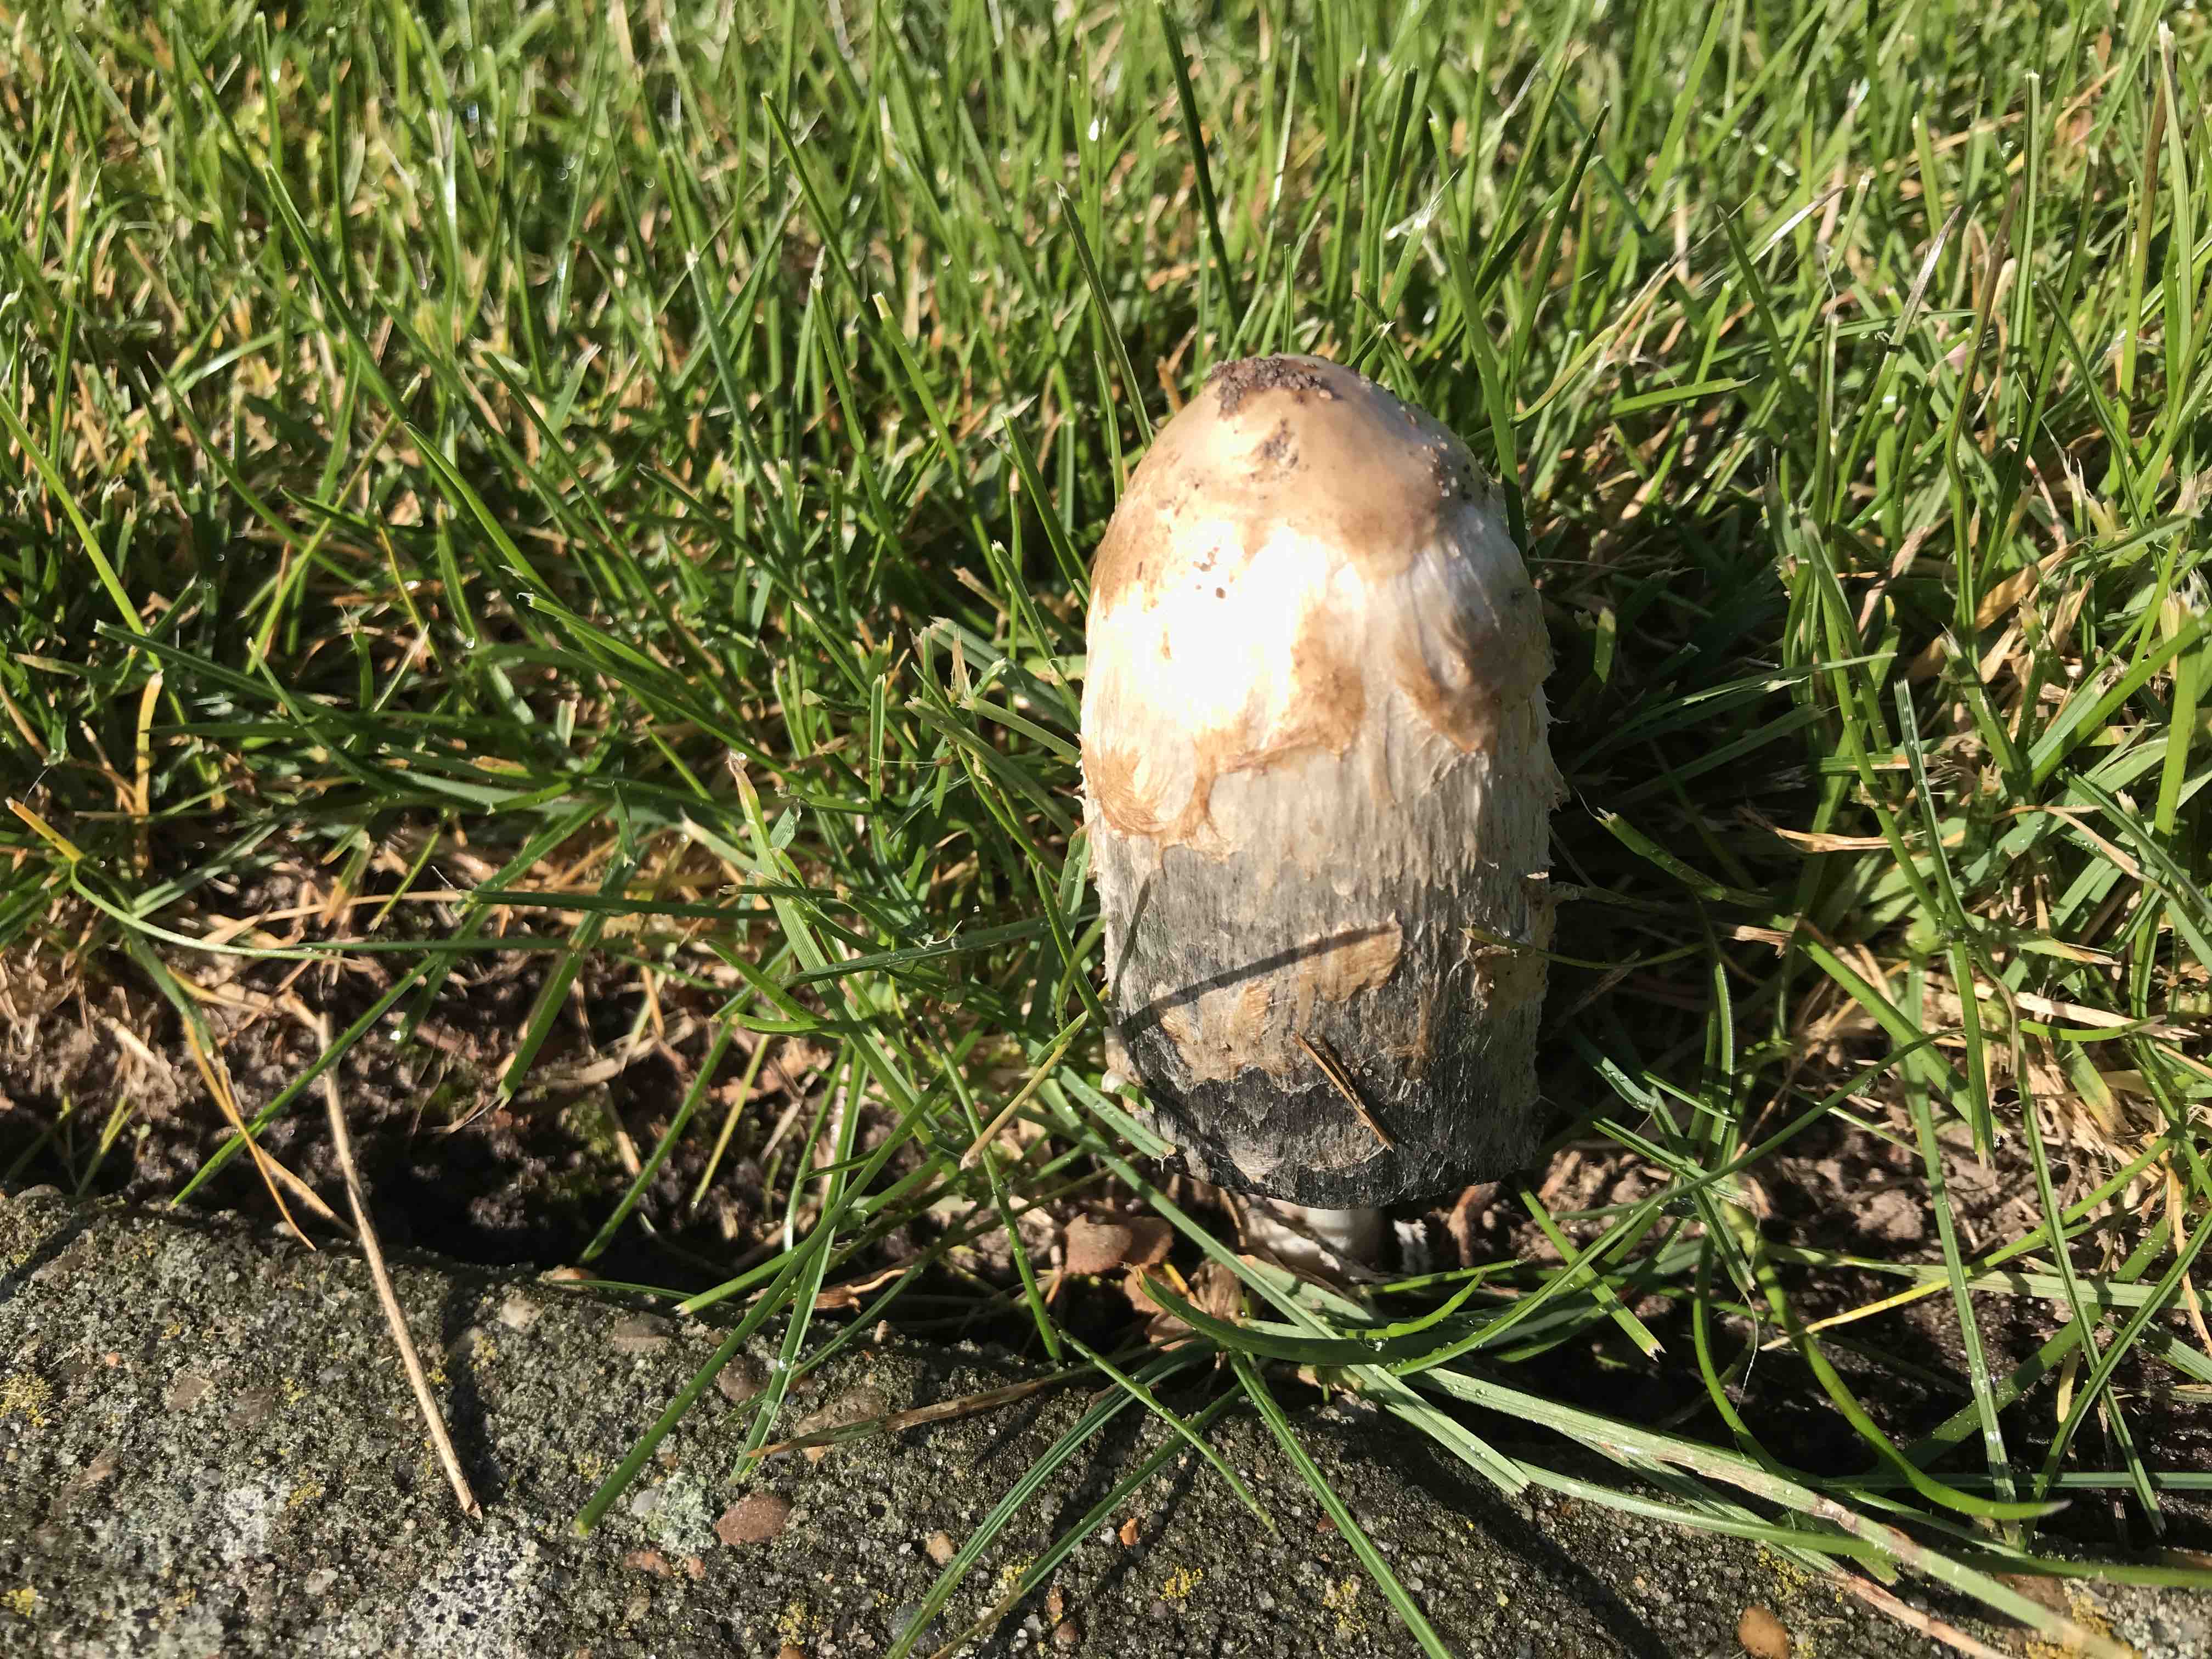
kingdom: Fungi
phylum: Basidiomycota
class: Agaricomycetes
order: Agaricales
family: Agaricaceae
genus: Coprinus
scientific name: Coprinus comatus
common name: stor parykhat
